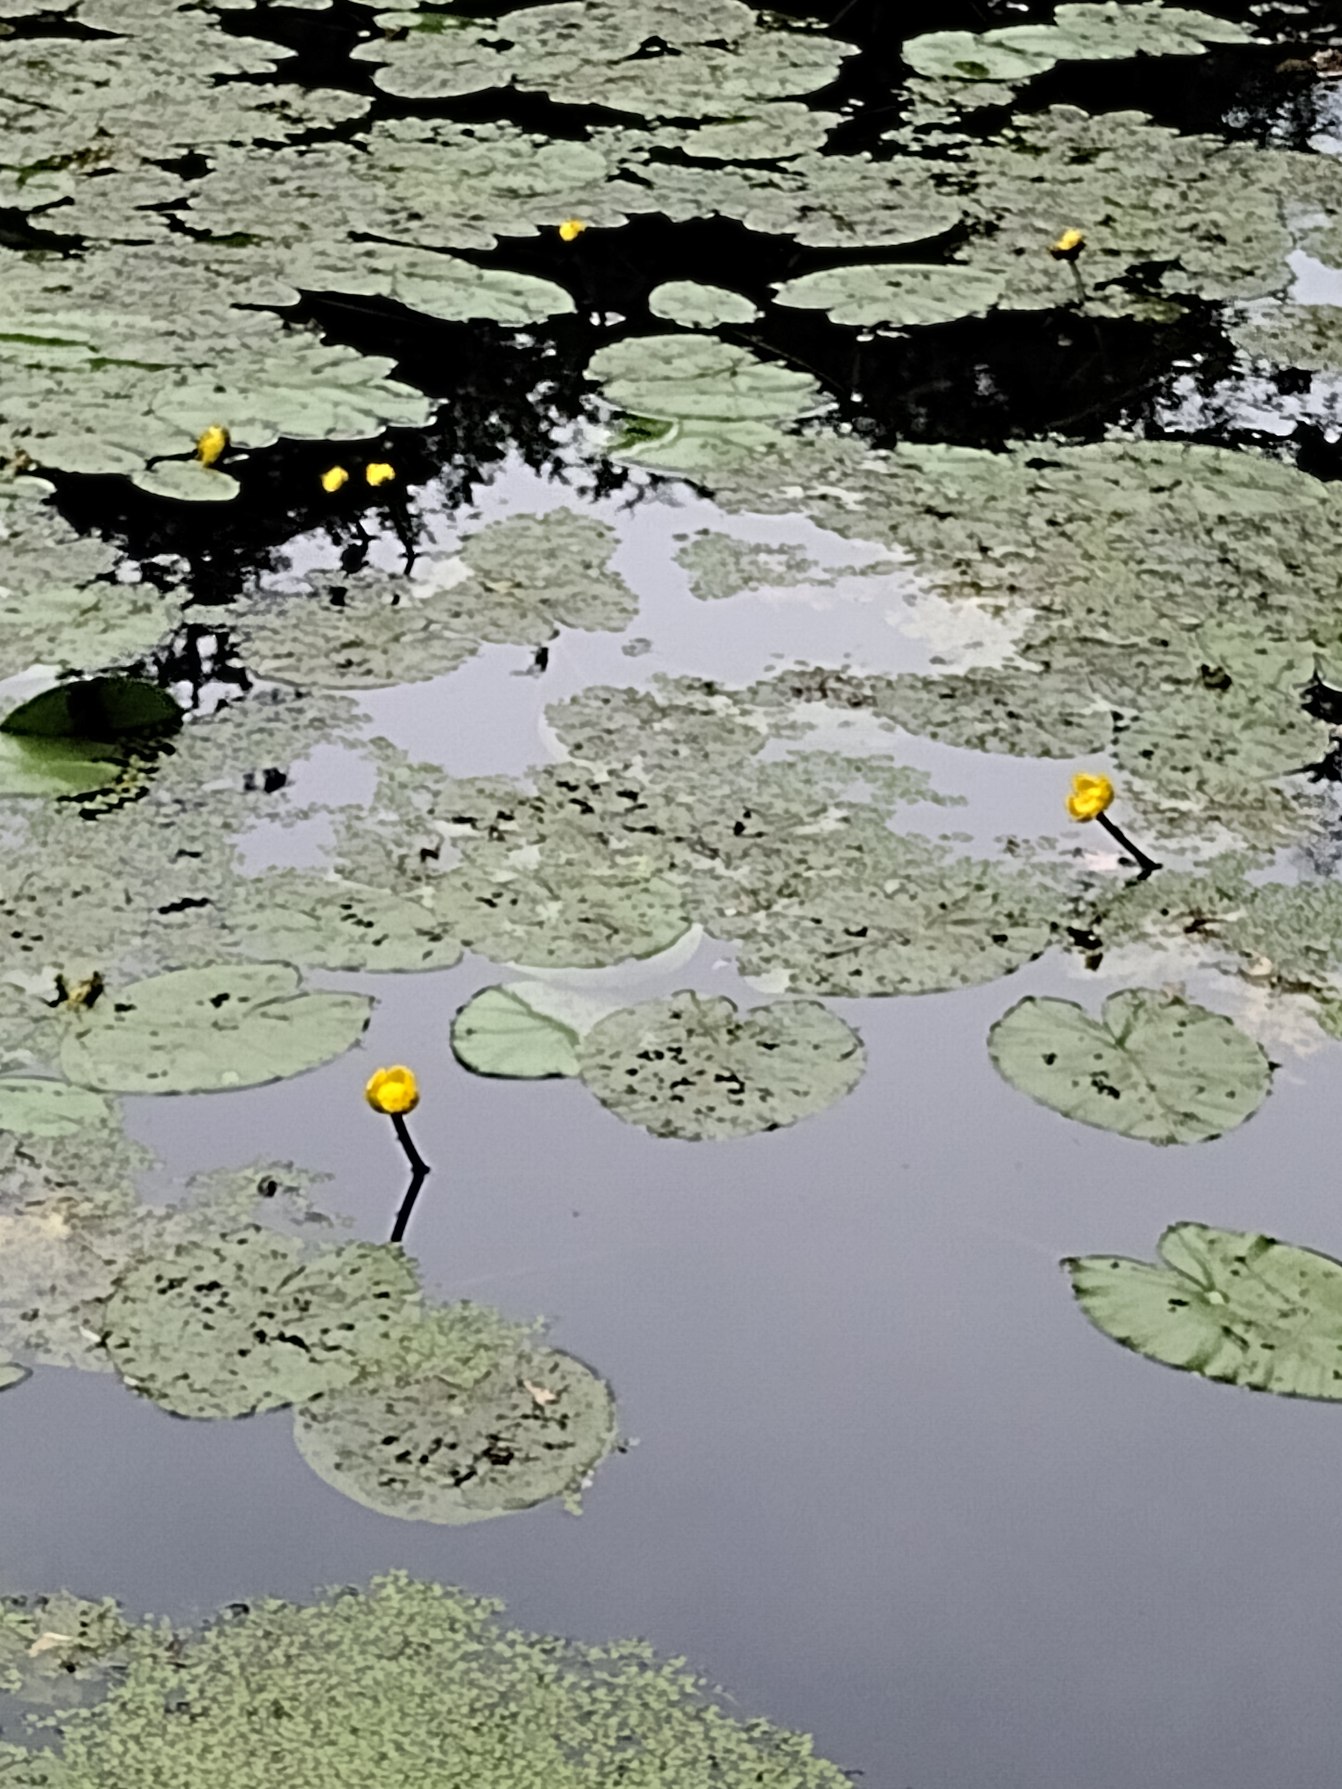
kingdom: Plantae
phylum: Tracheophyta
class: Magnoliopsida
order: Nymphaeales
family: Nymphaeaceae
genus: Nuphar
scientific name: Nuphar lutea
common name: Gul åkande
